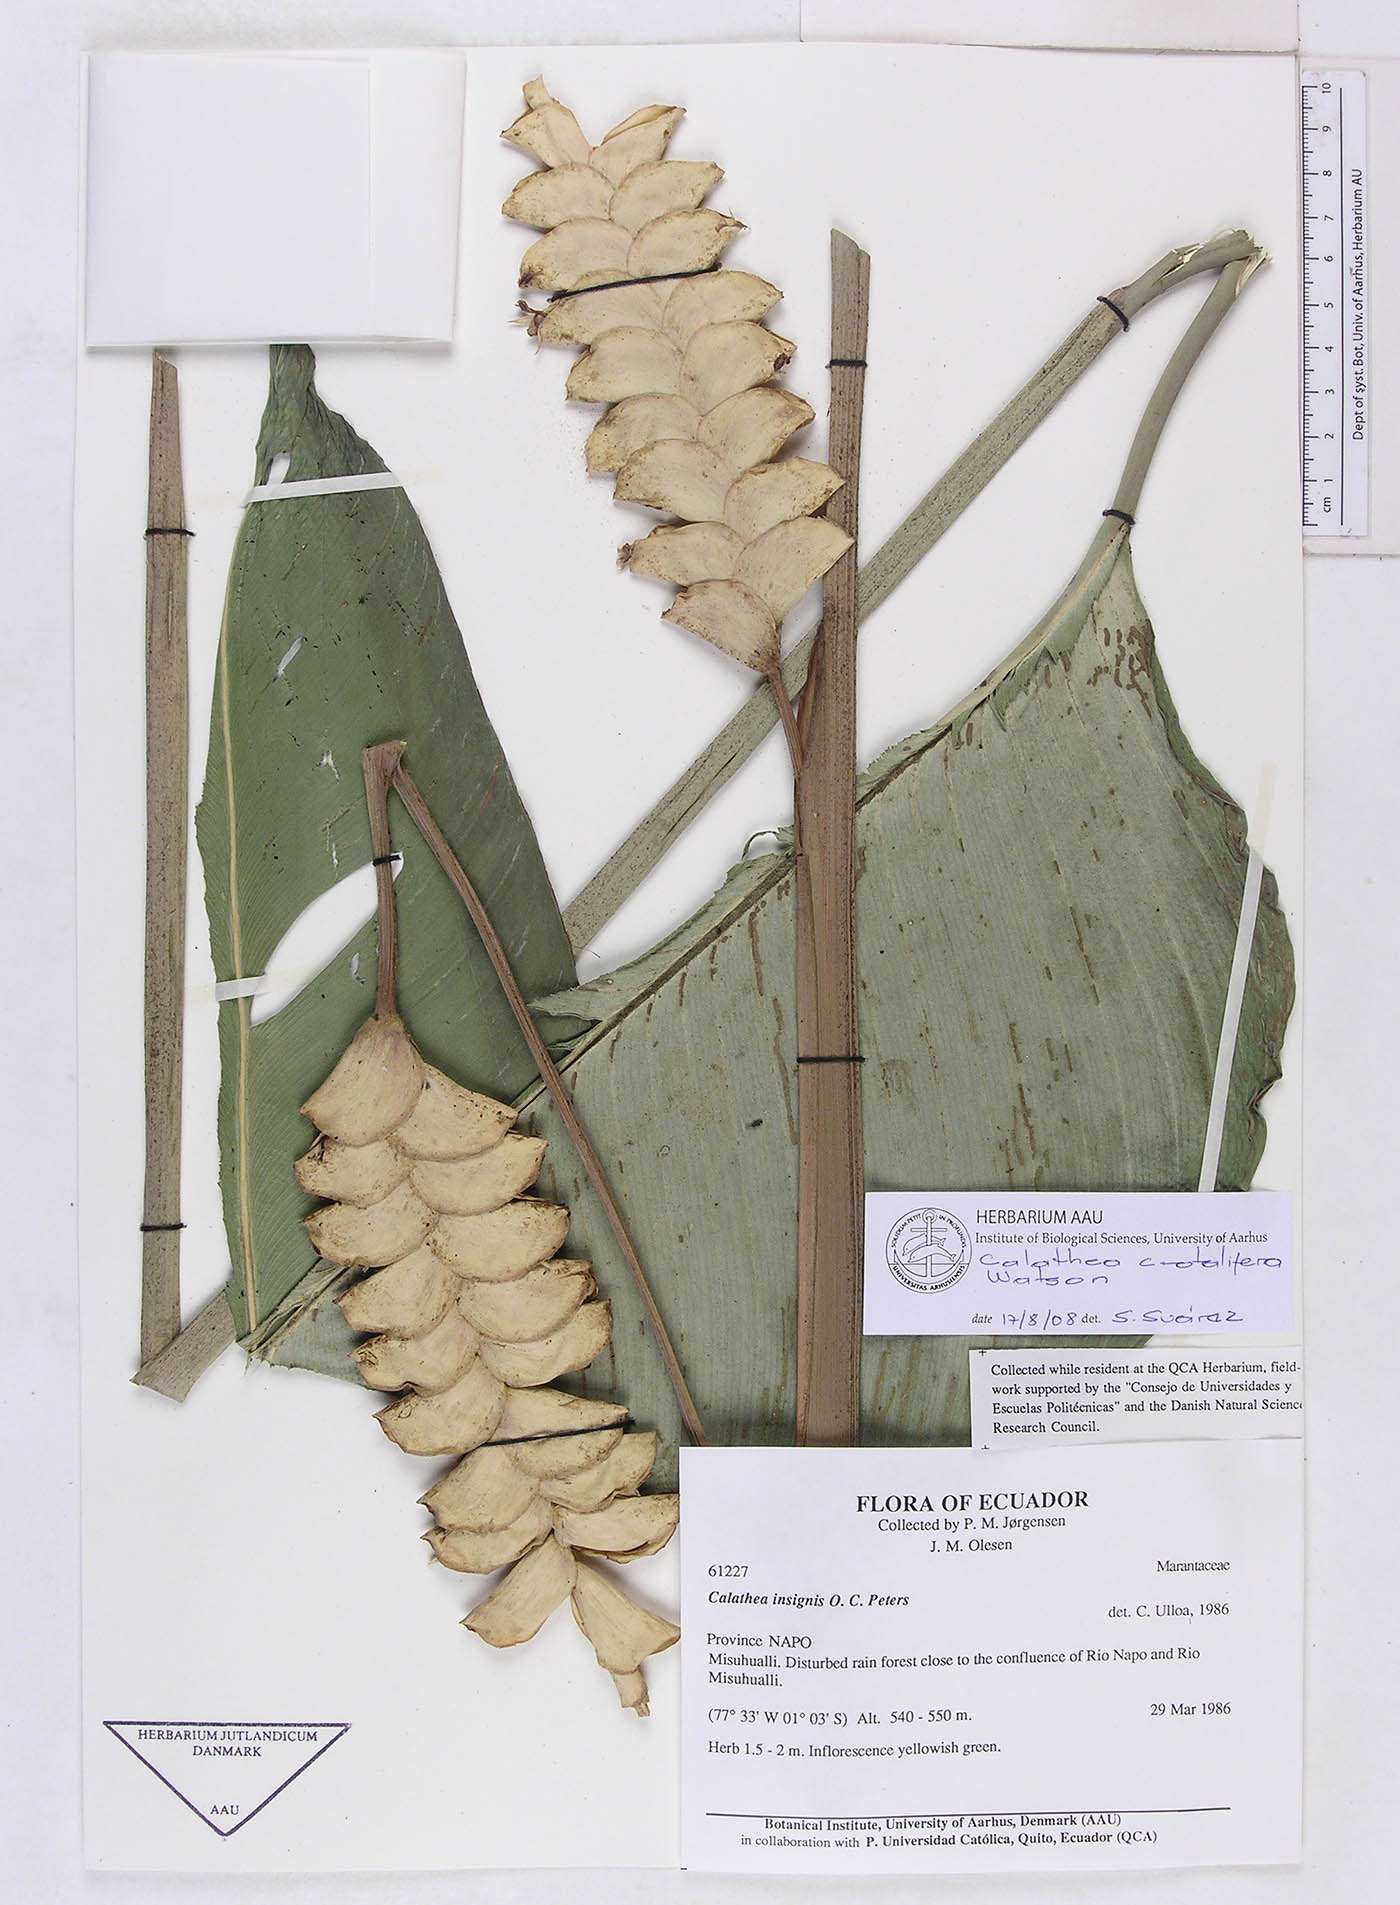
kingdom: Plantae
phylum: Tracheophyta
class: Liliopsida
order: Zingiberales
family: Marantaceae
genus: Calathea
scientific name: Calathea crotalifera
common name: Rattlesnake plant
